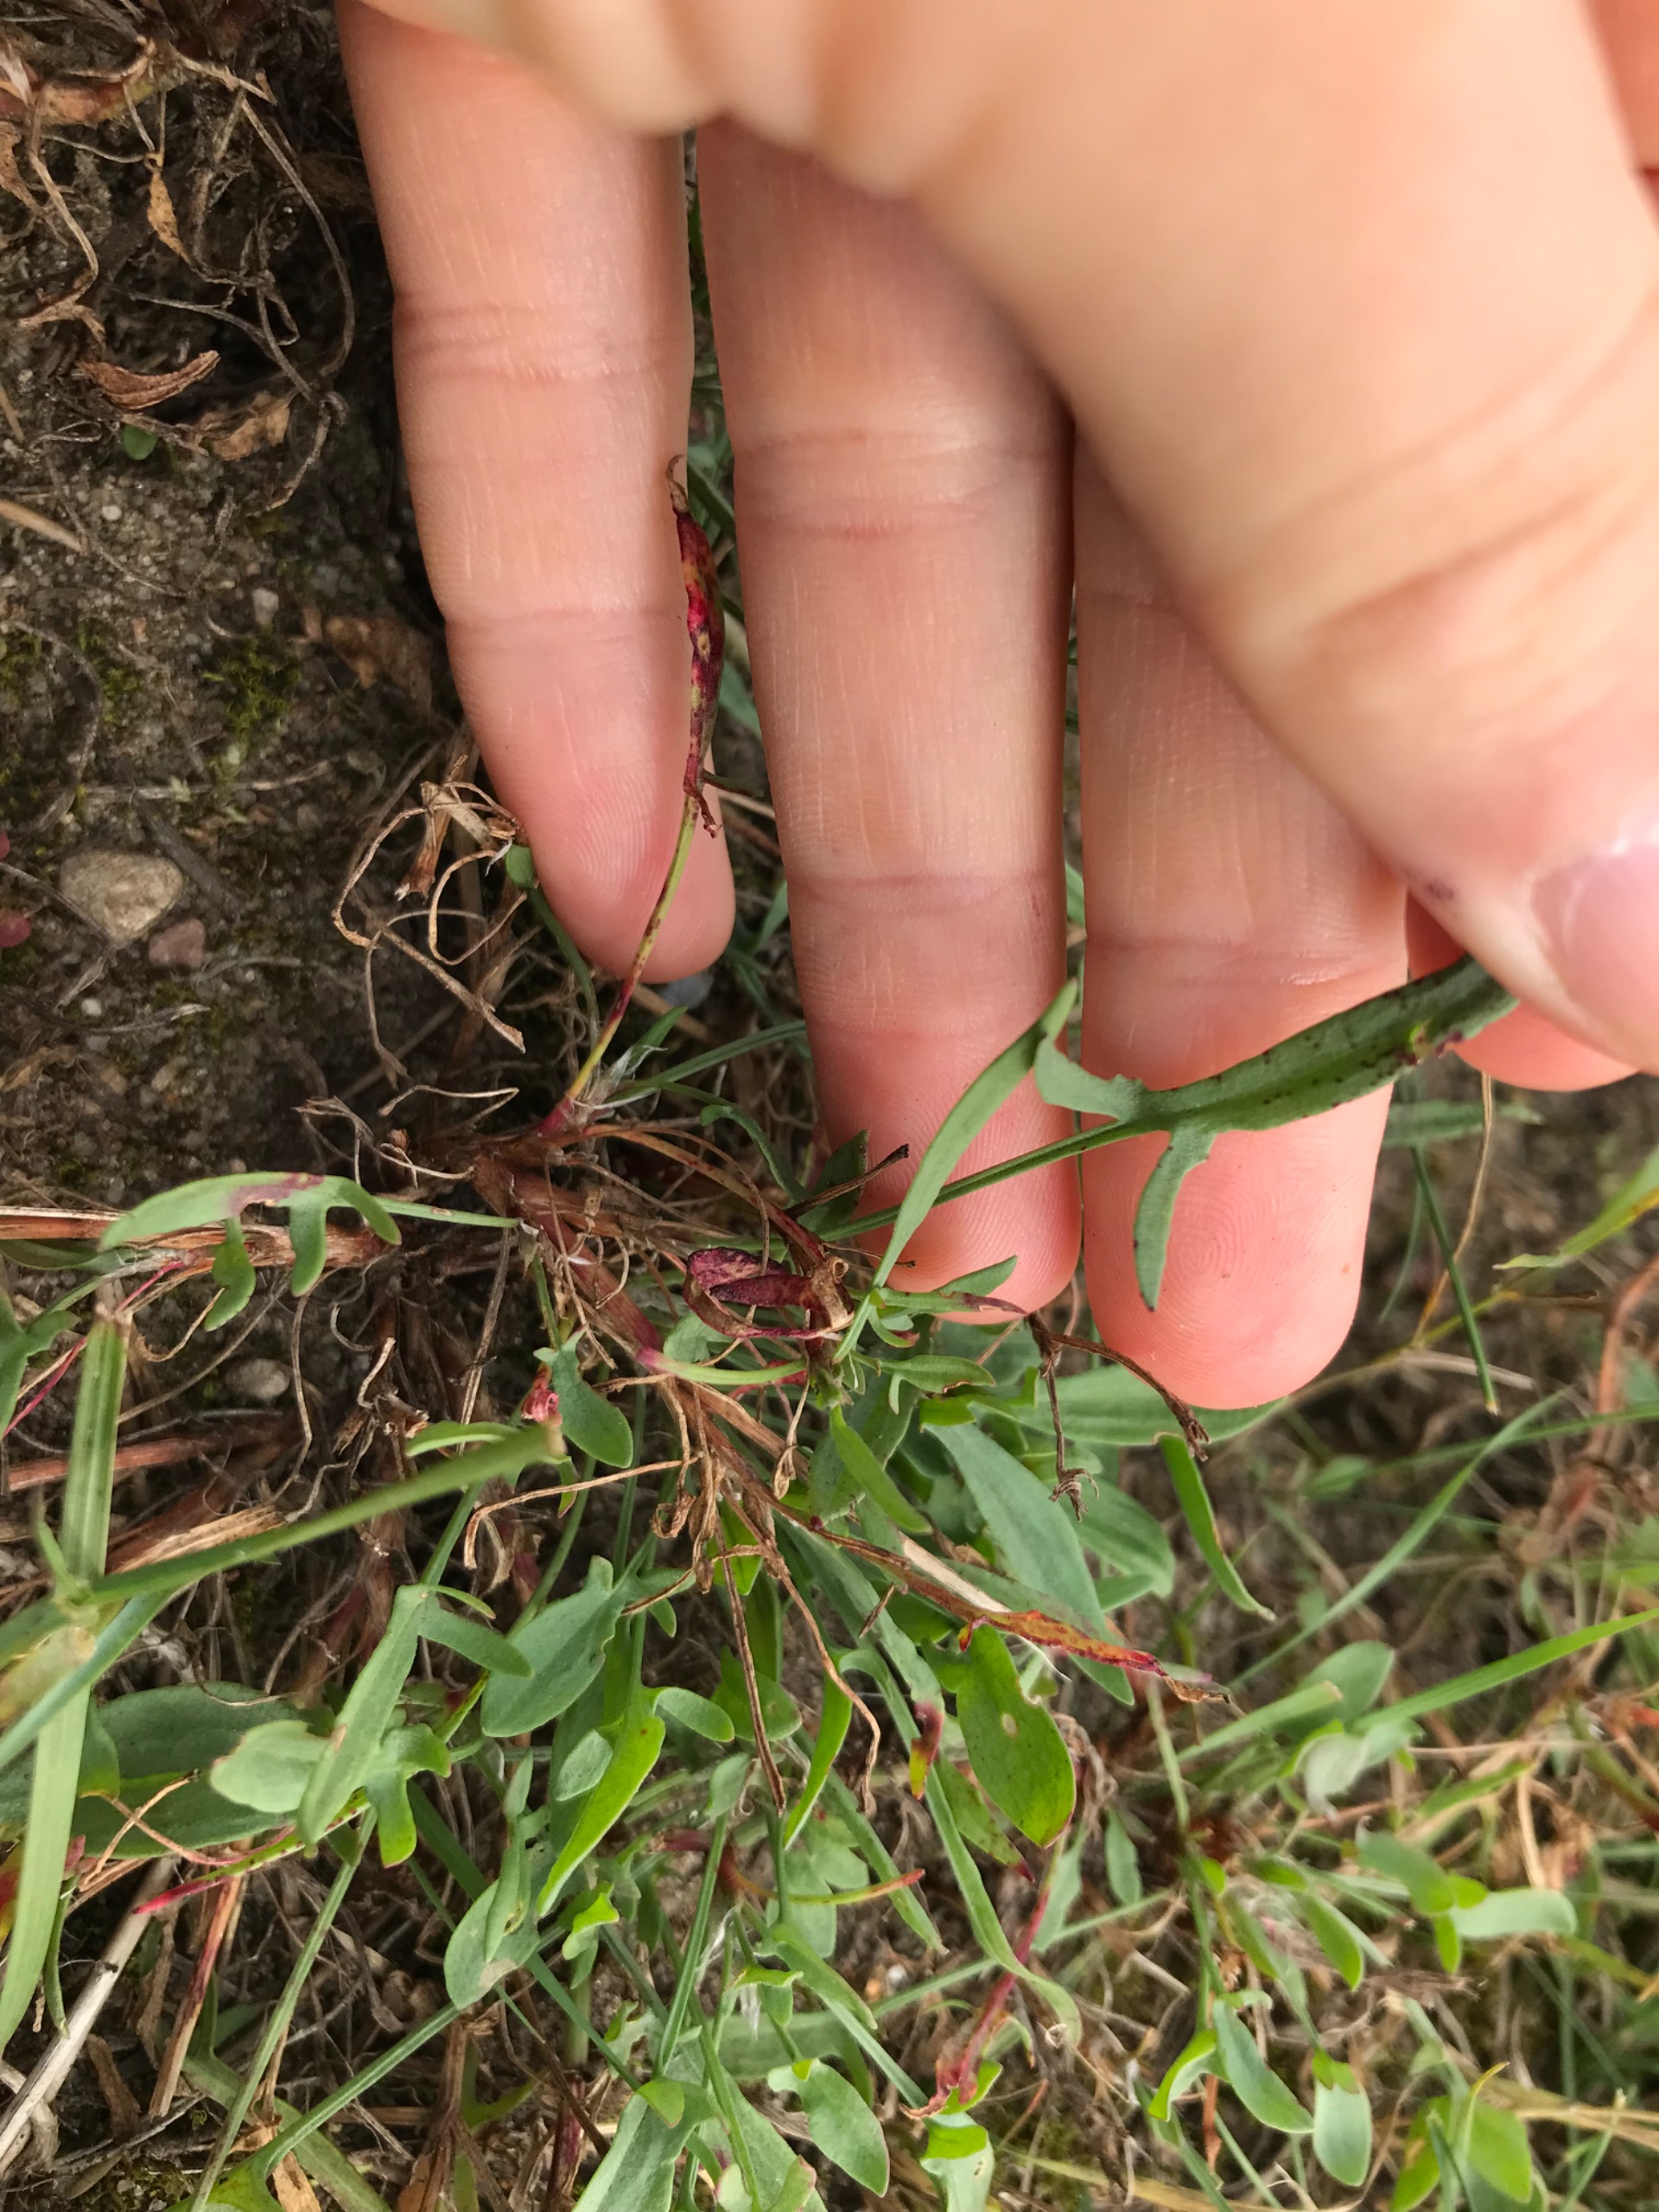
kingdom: Plantae
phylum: Tracheophyta
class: Magnoliopsida
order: Caryophyllales
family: Polygonaceae
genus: Rumex
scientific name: Rumex acetosella
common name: Rødknæ
